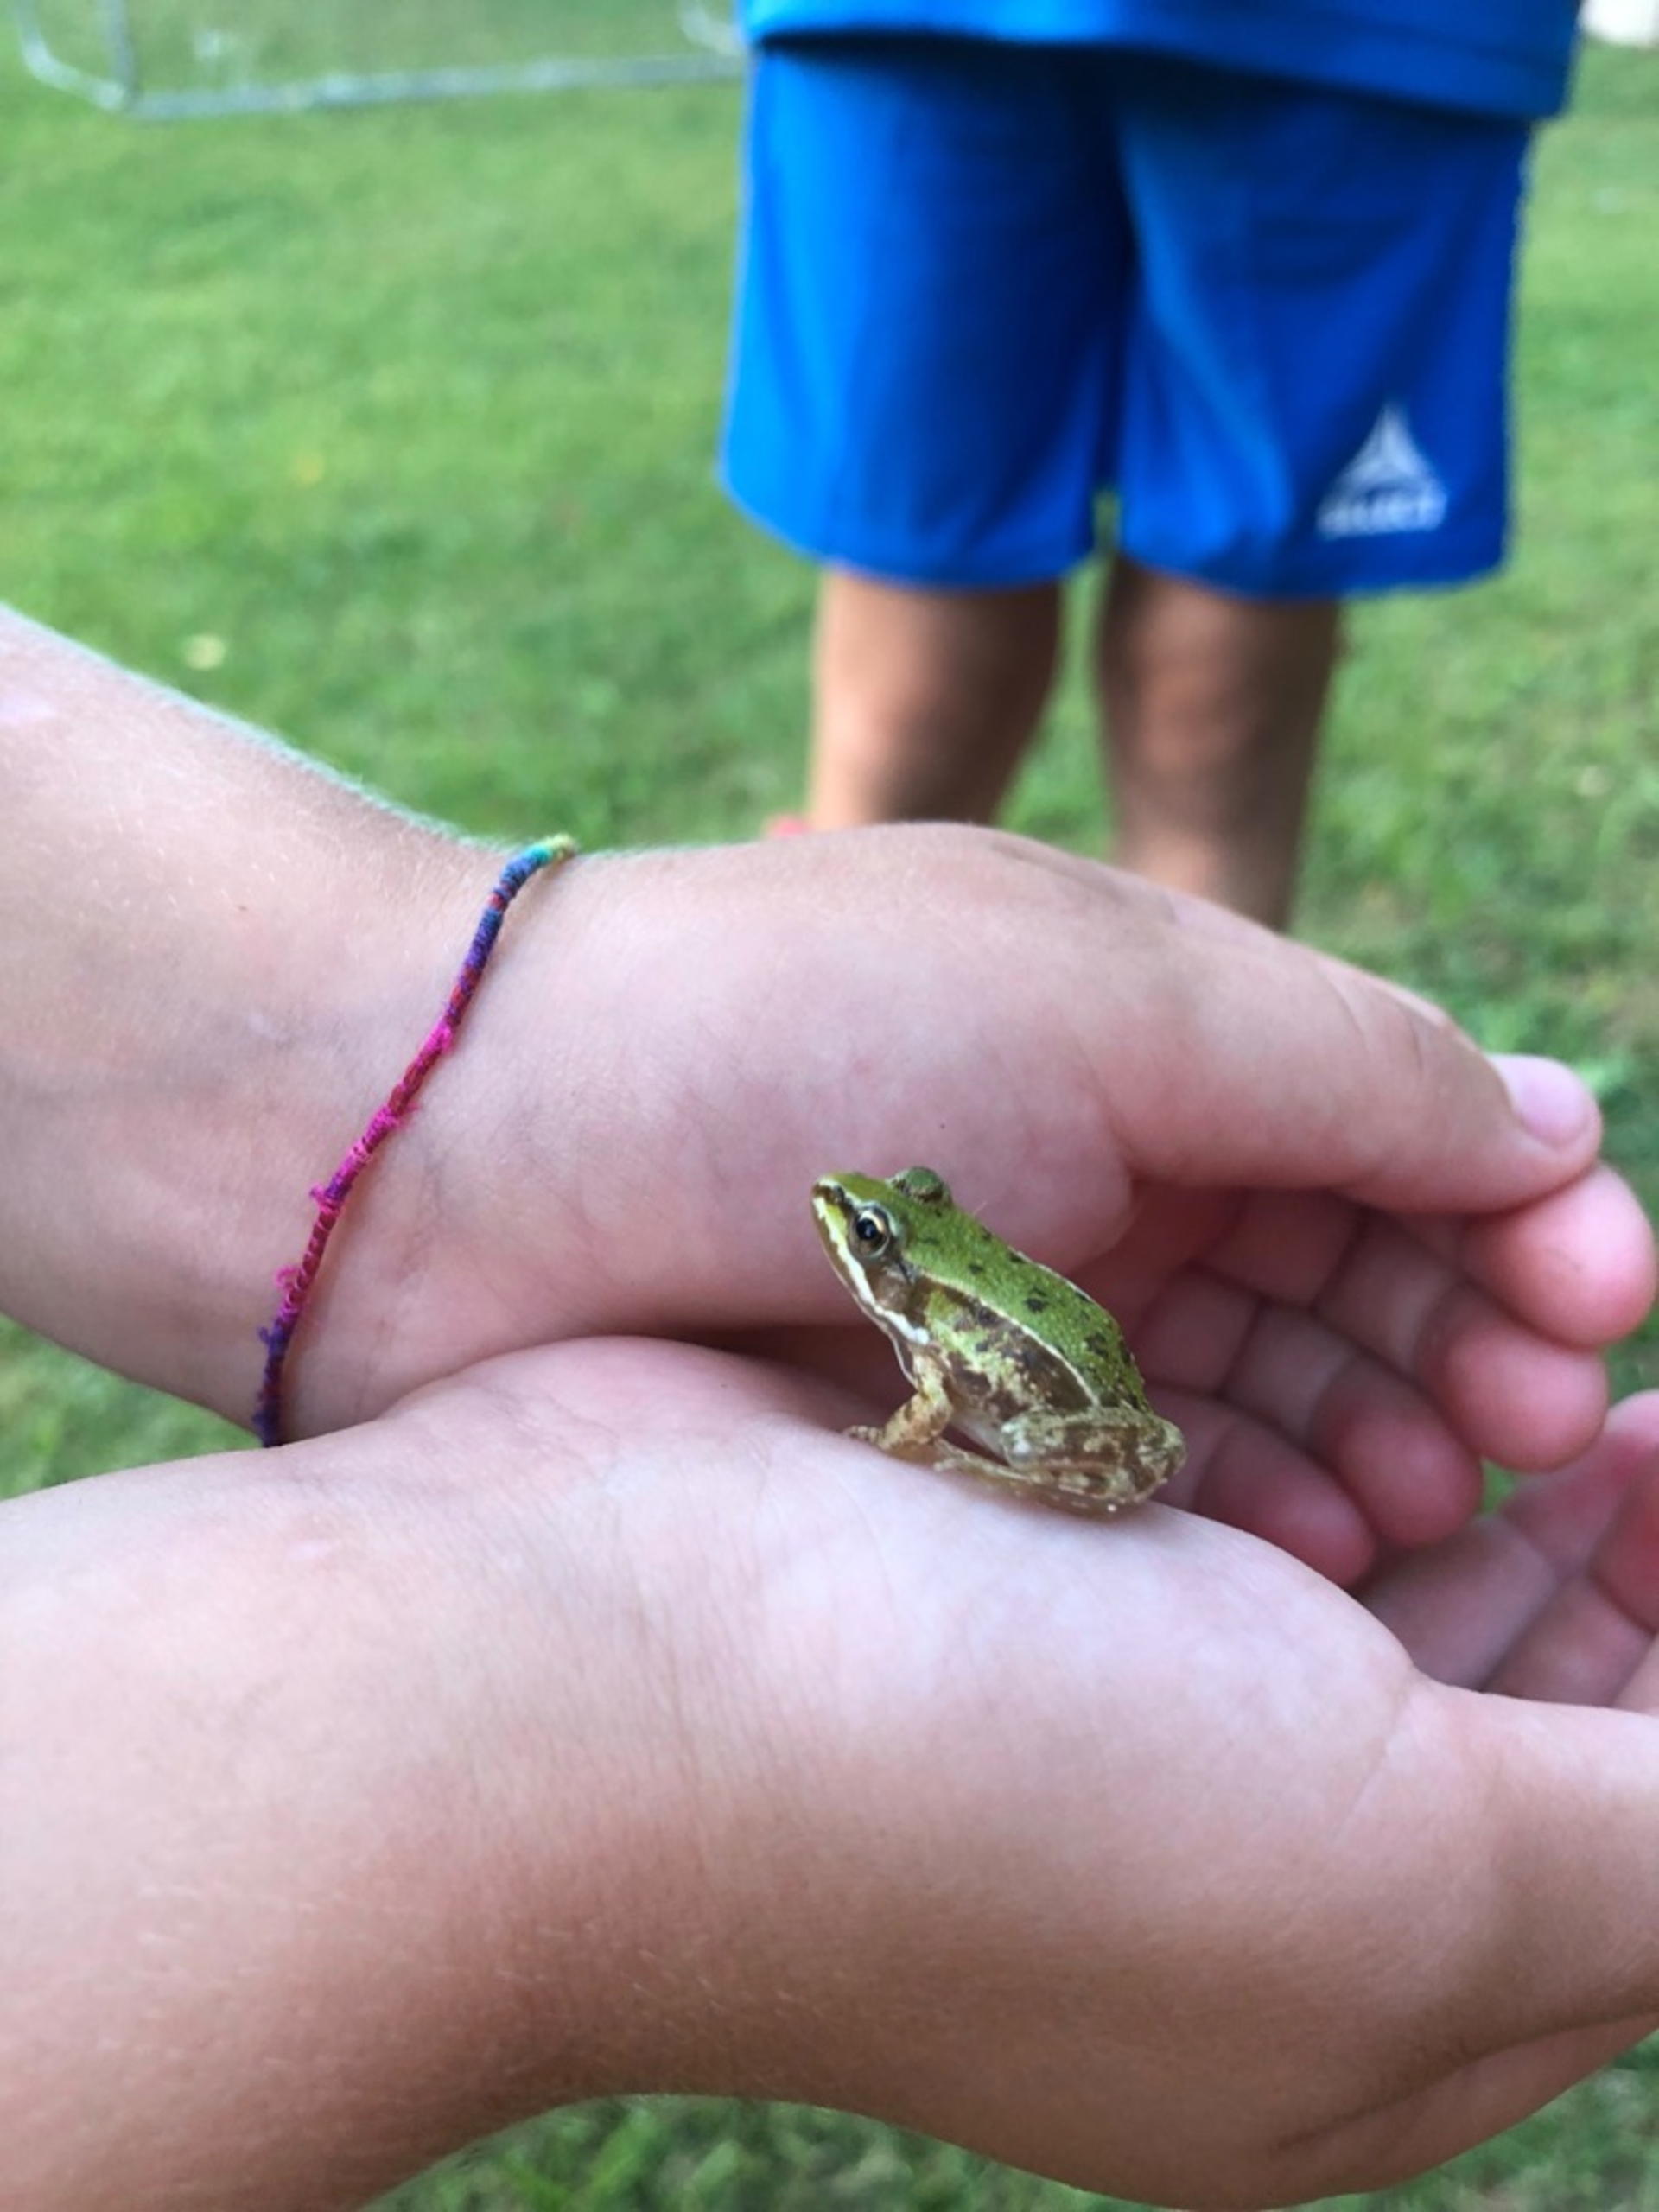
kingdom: Animalia
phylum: Chordata
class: Amphibia
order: Anura
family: Ranidae
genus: Pelophylax
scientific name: Pelophylax lessonae
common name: Grøn frø
